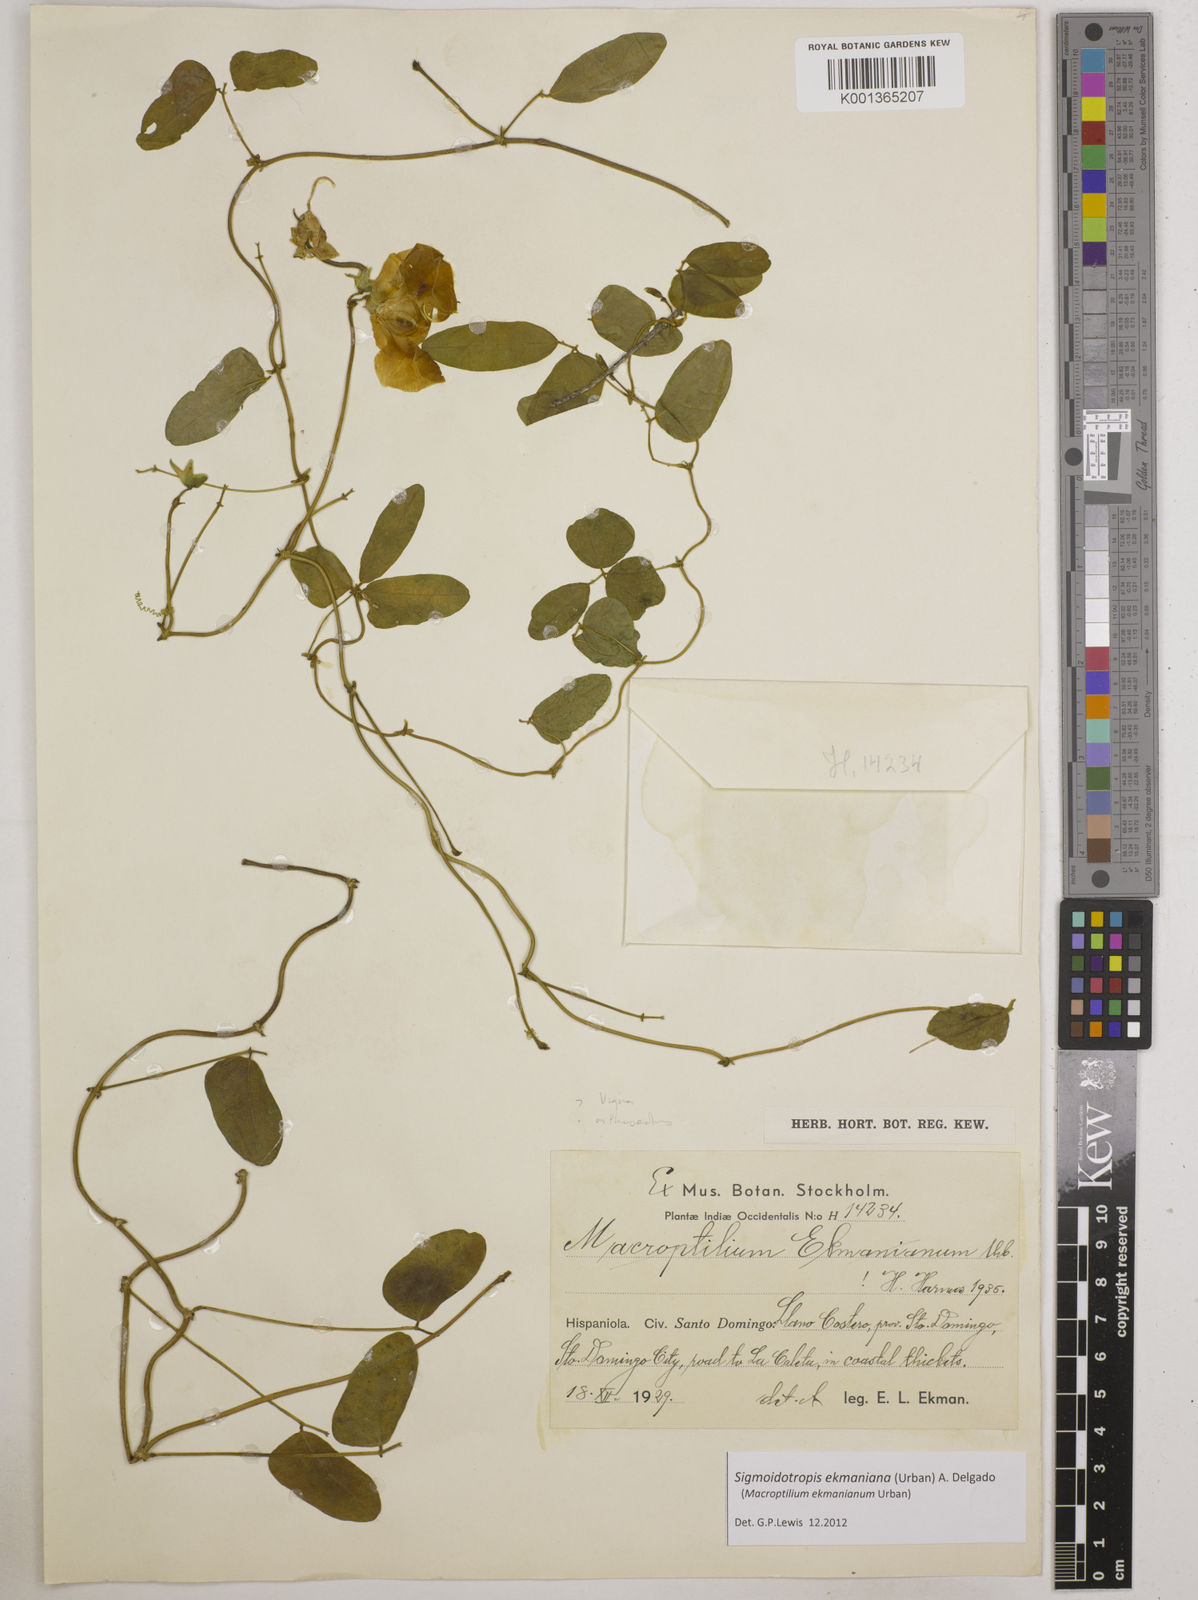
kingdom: Plantae
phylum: Tracheophyta
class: Magnoliopsida
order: Fabales
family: Fabaceae
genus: Sigmoidotropis
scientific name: Sigmoidotropis ekmaniana
